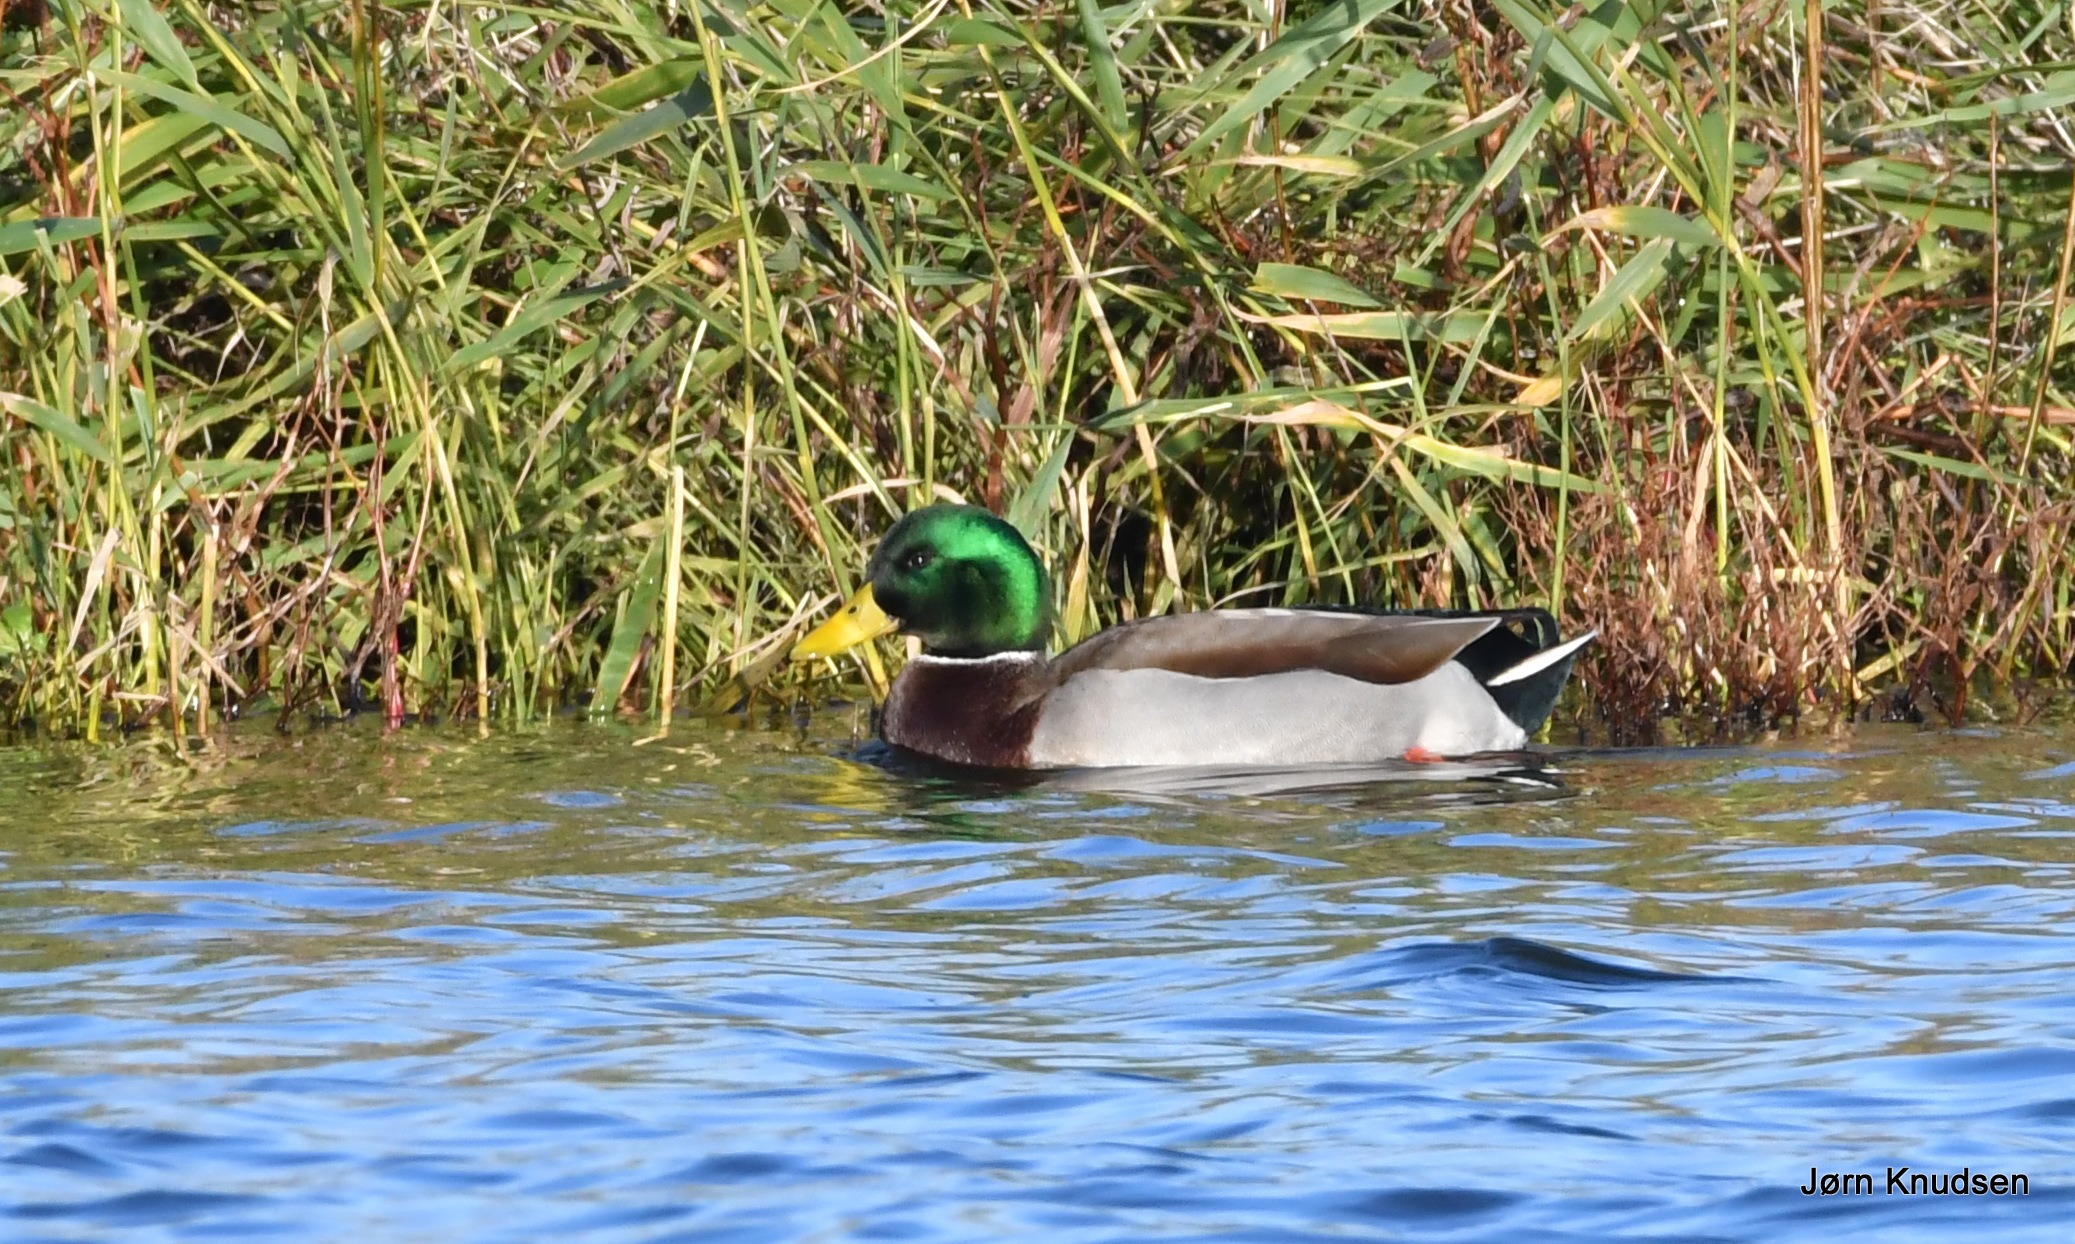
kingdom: Animalia
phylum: Chordata
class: Aves
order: Anseriformes
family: Anatidae
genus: Anas
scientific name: Anas platyrhynchos
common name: Gråand
